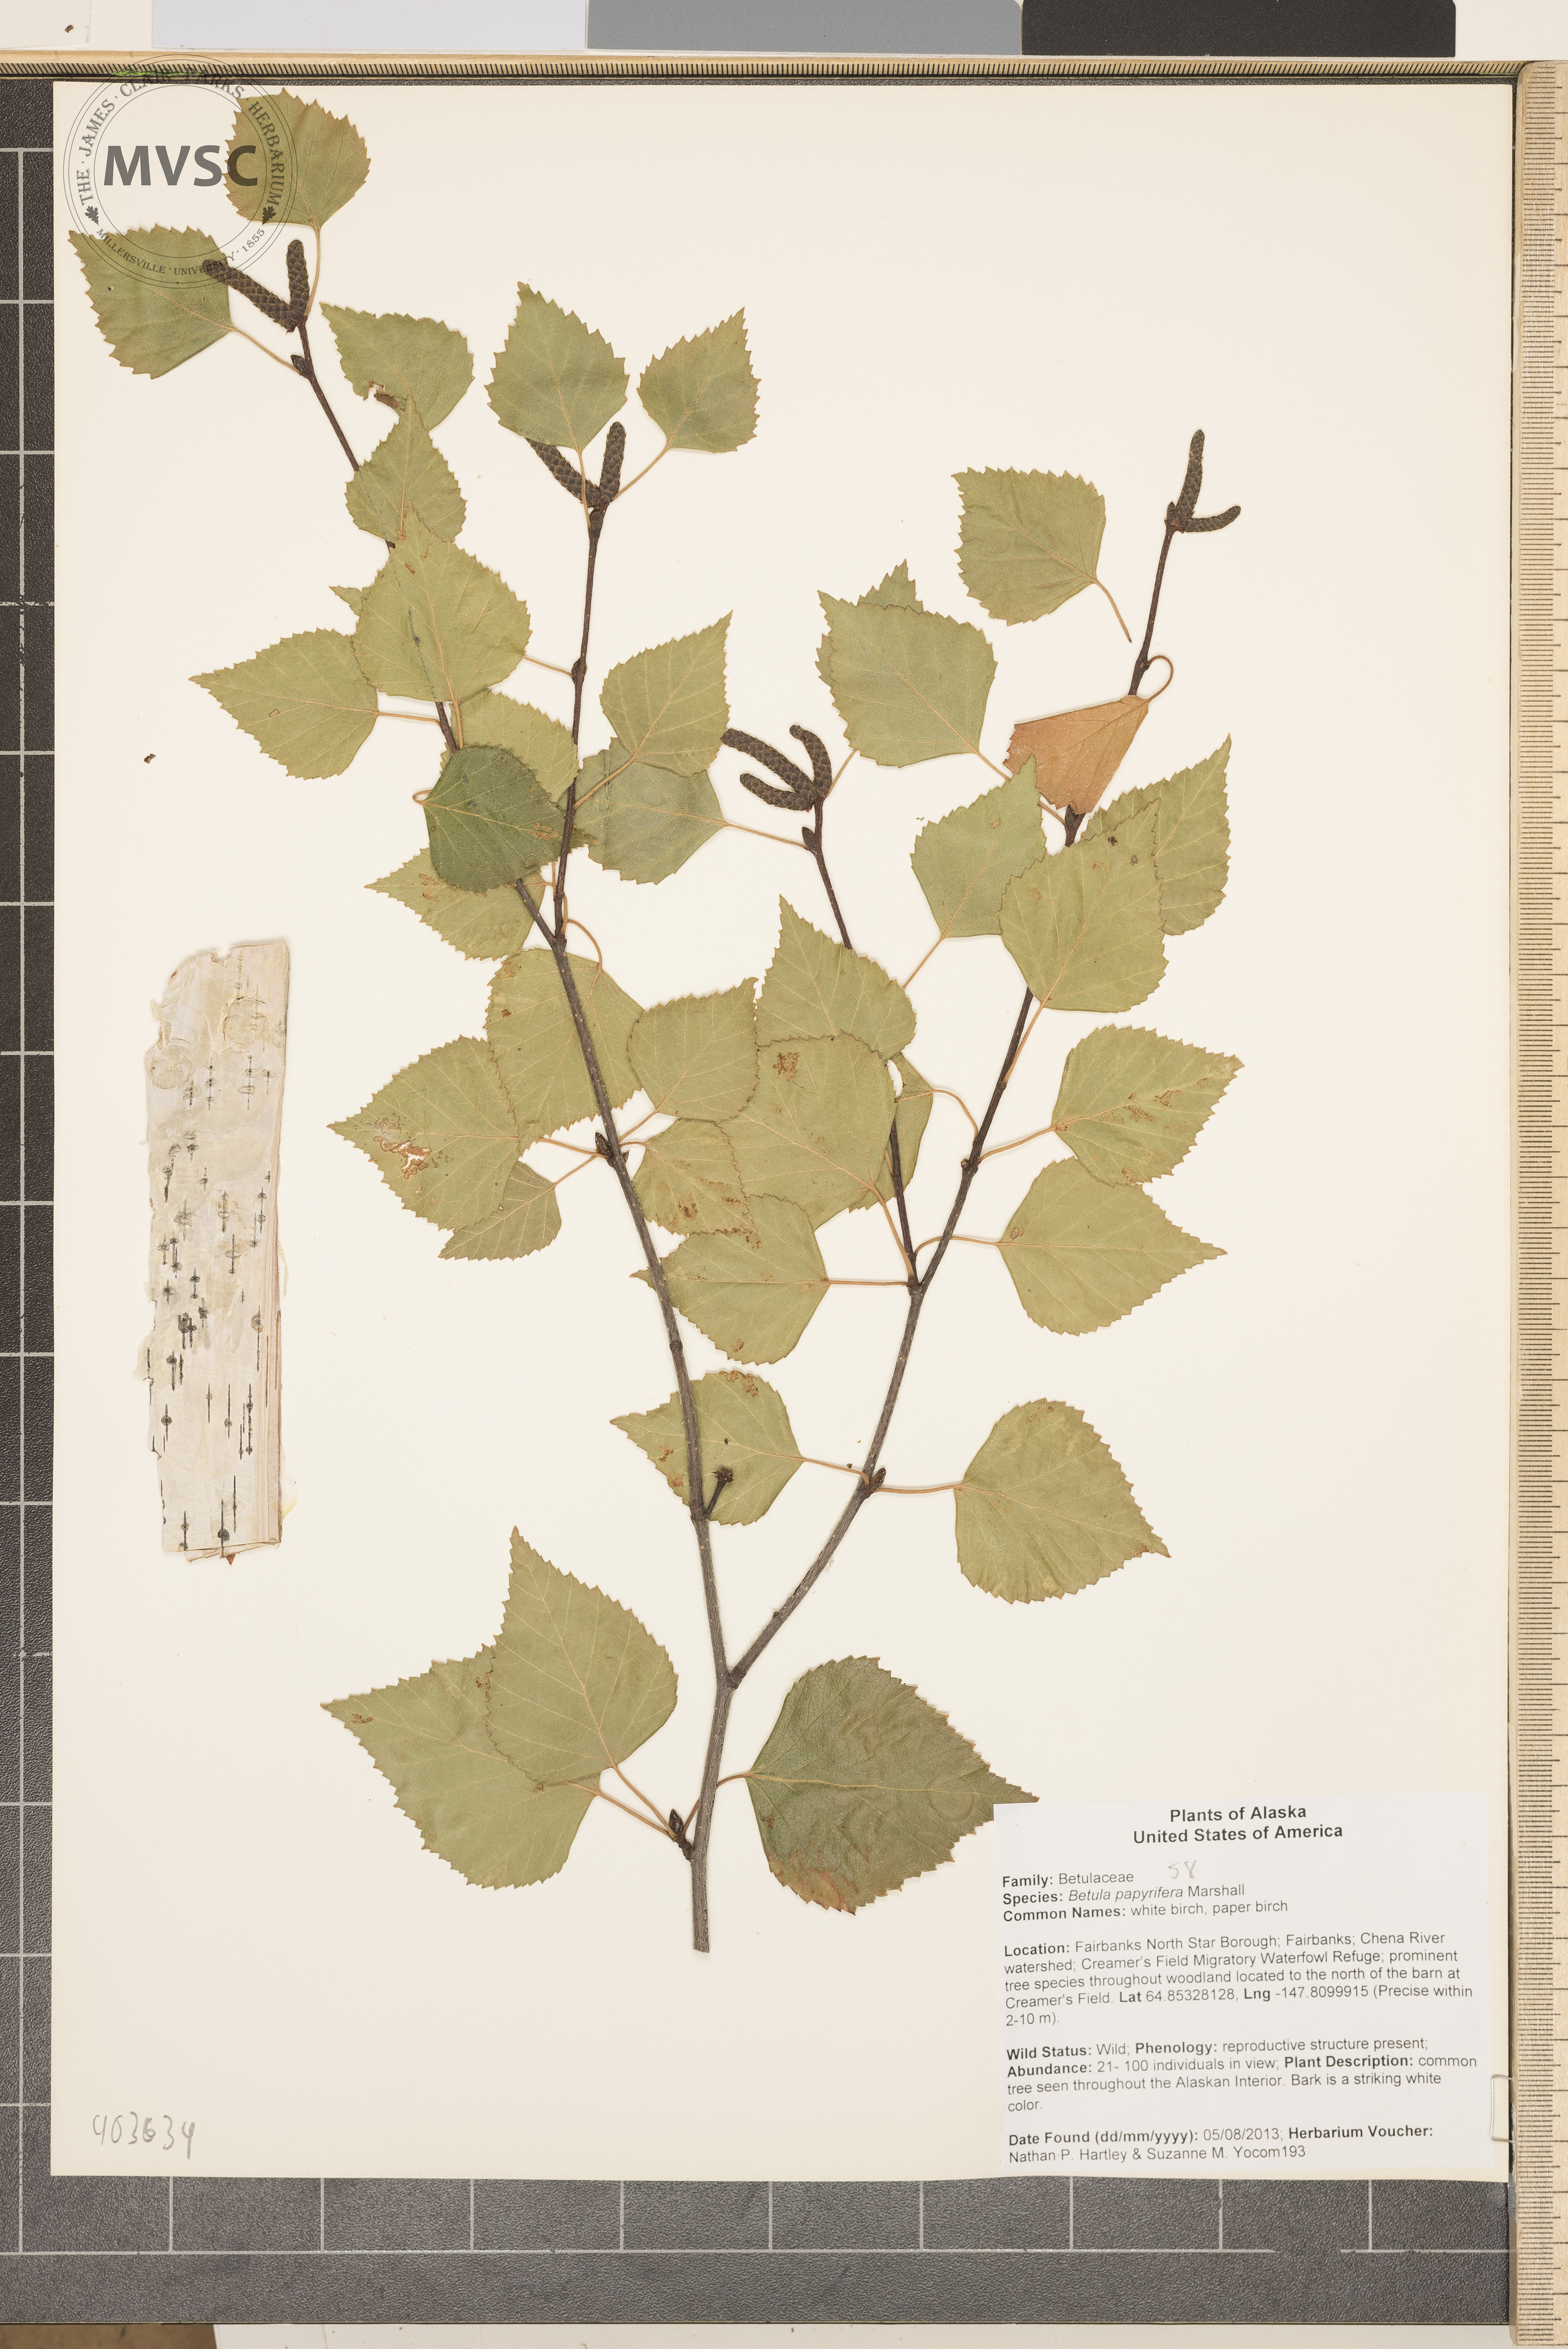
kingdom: Plantae
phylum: Tracheophyta
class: Magnoliopsida
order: Fagales
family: Betulaceae
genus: Betula
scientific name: Betula papyrifera
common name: Paper Birch
